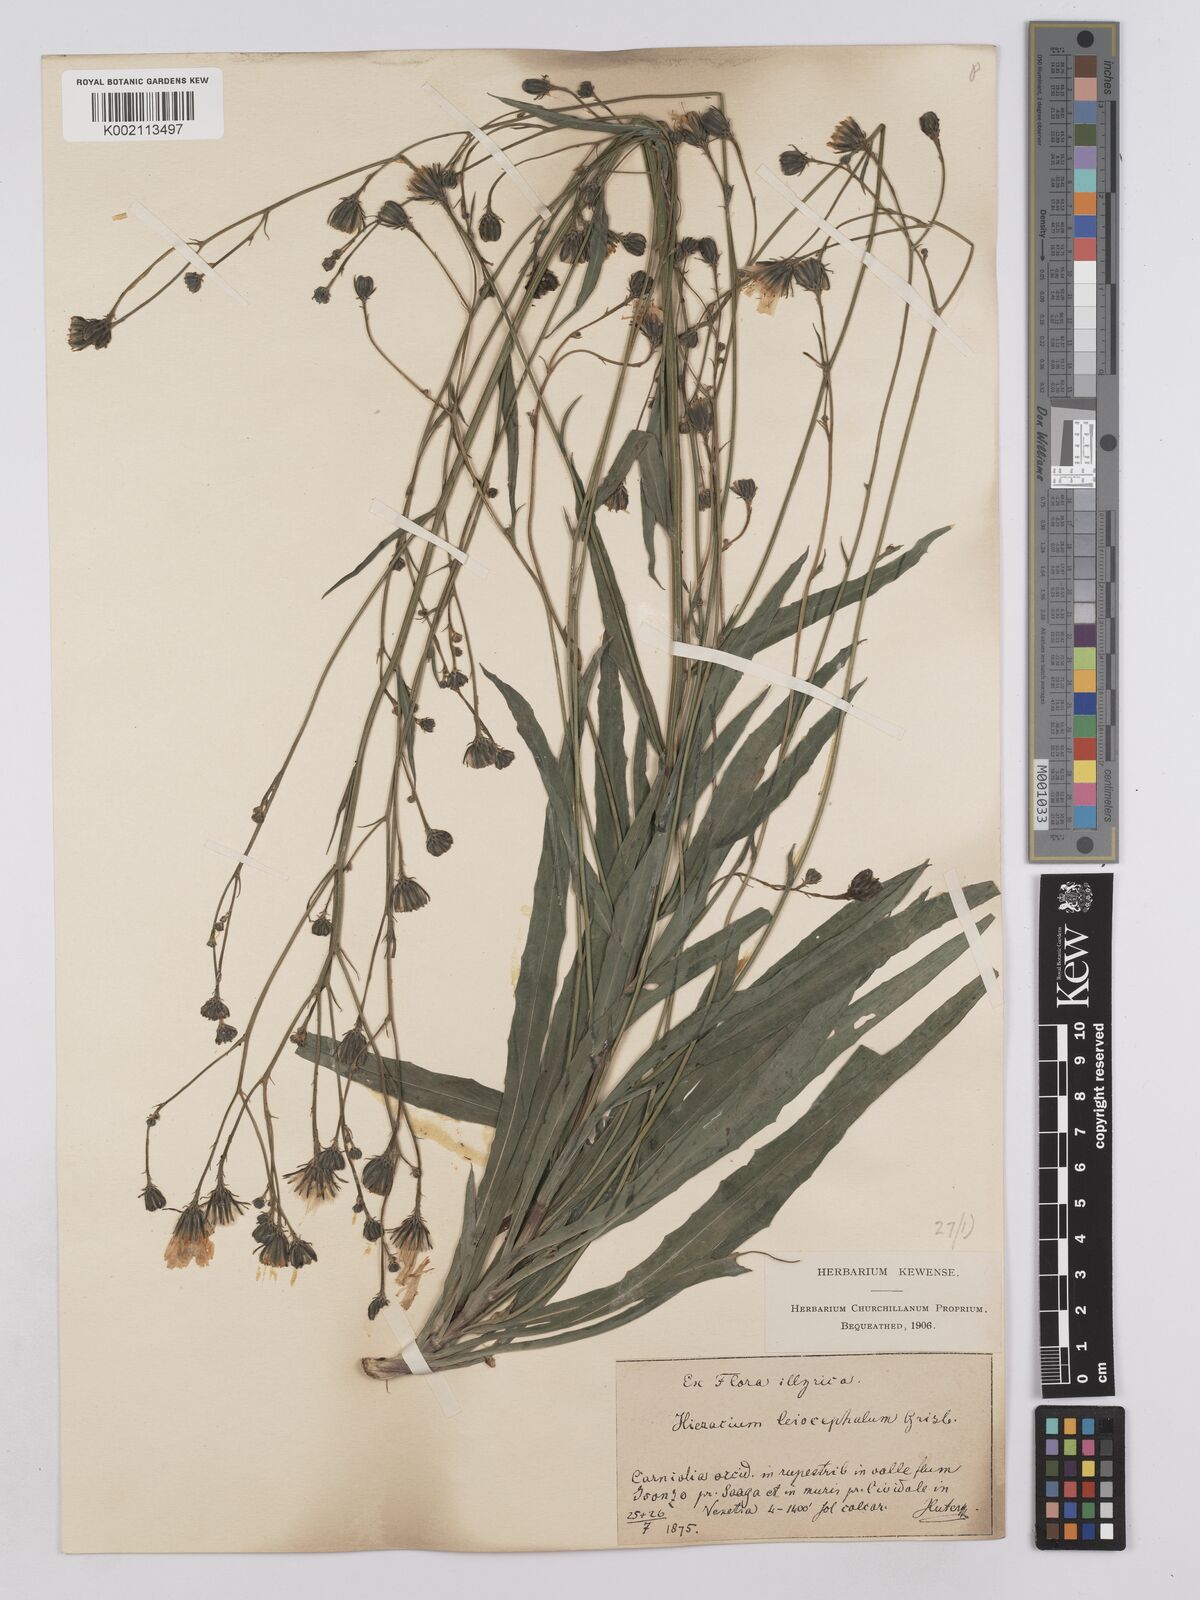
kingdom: Plantae
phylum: Tracheophyta
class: Magnoliopsida
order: Asterales
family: Asteraceae
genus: Hieracium
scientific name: Hieracium leiocephalum
